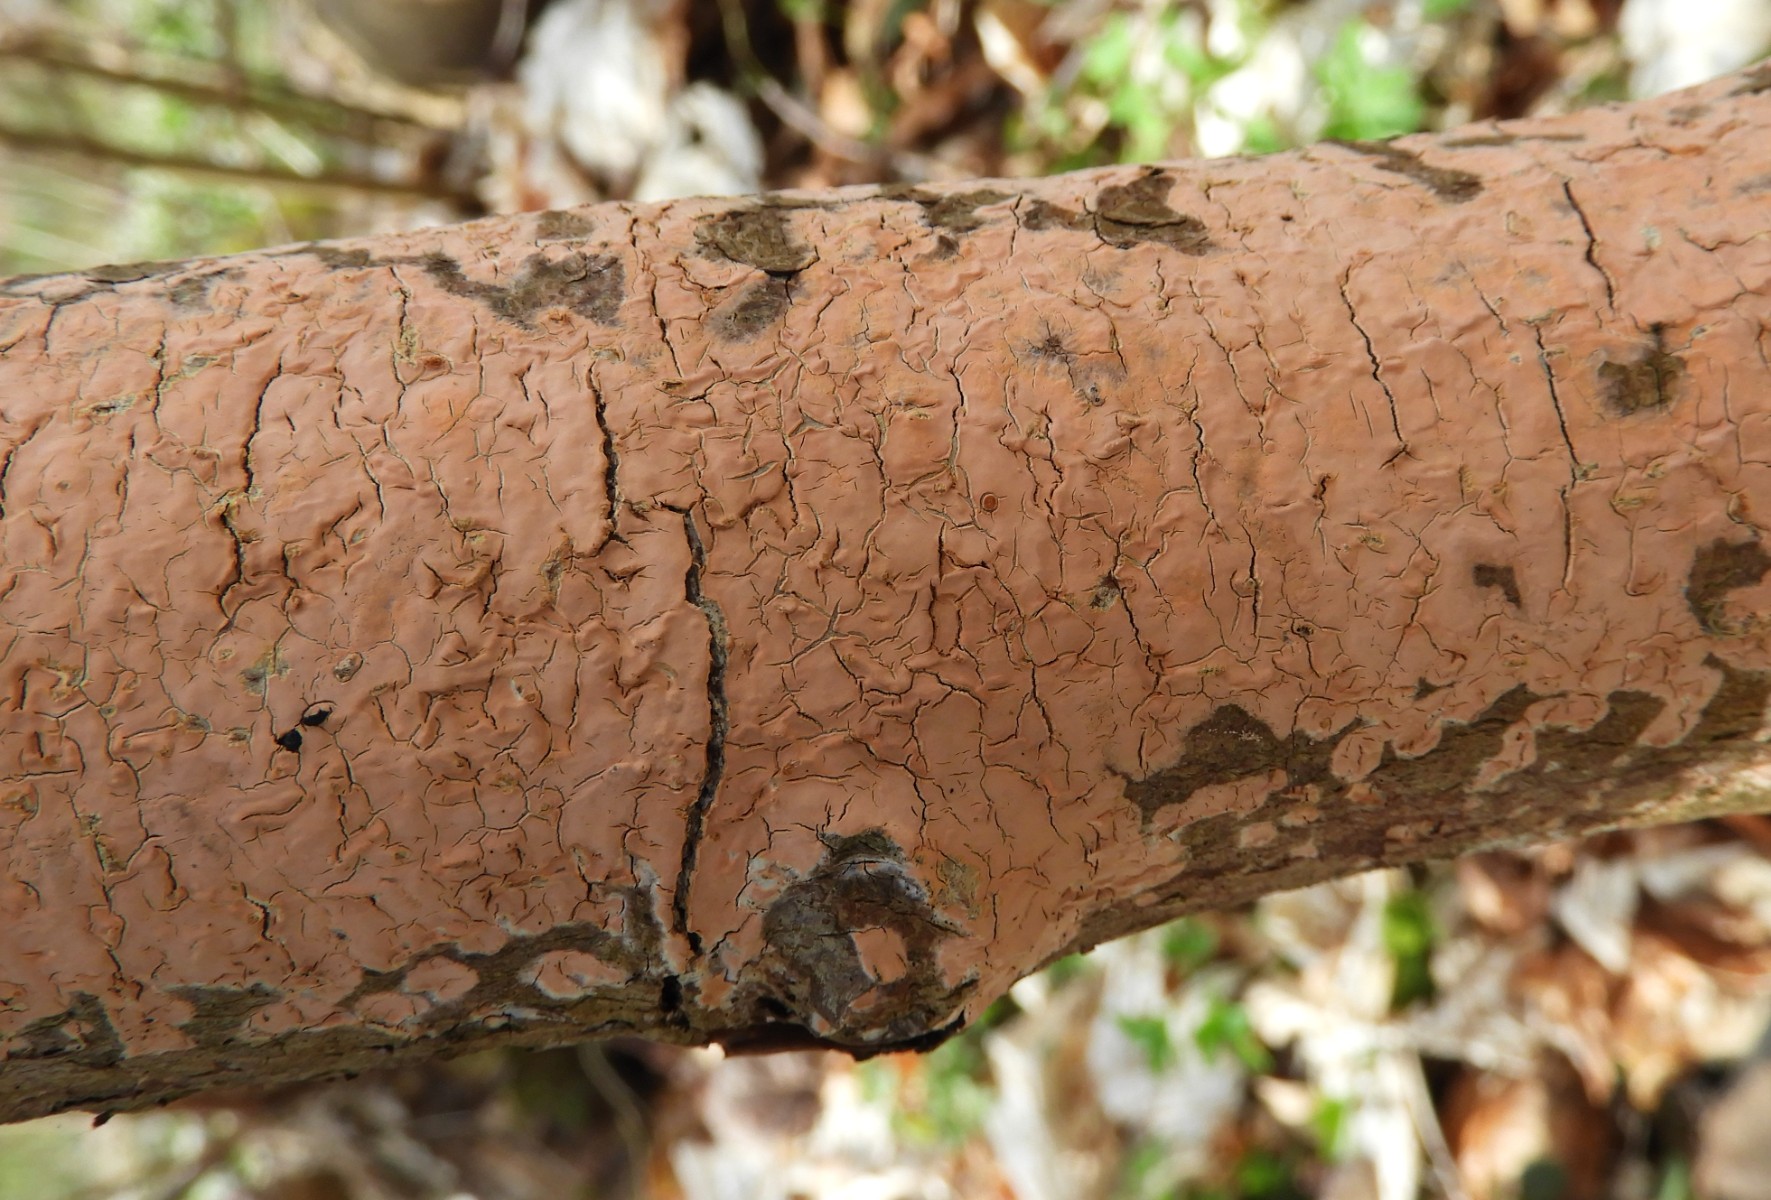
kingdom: Fungi
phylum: Basidiomycota
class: Agaricomycetes
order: Russulales
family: Peniophoraceae
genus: Peniophora
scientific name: Peniophora incarnata
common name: laksefarvet voksskind
